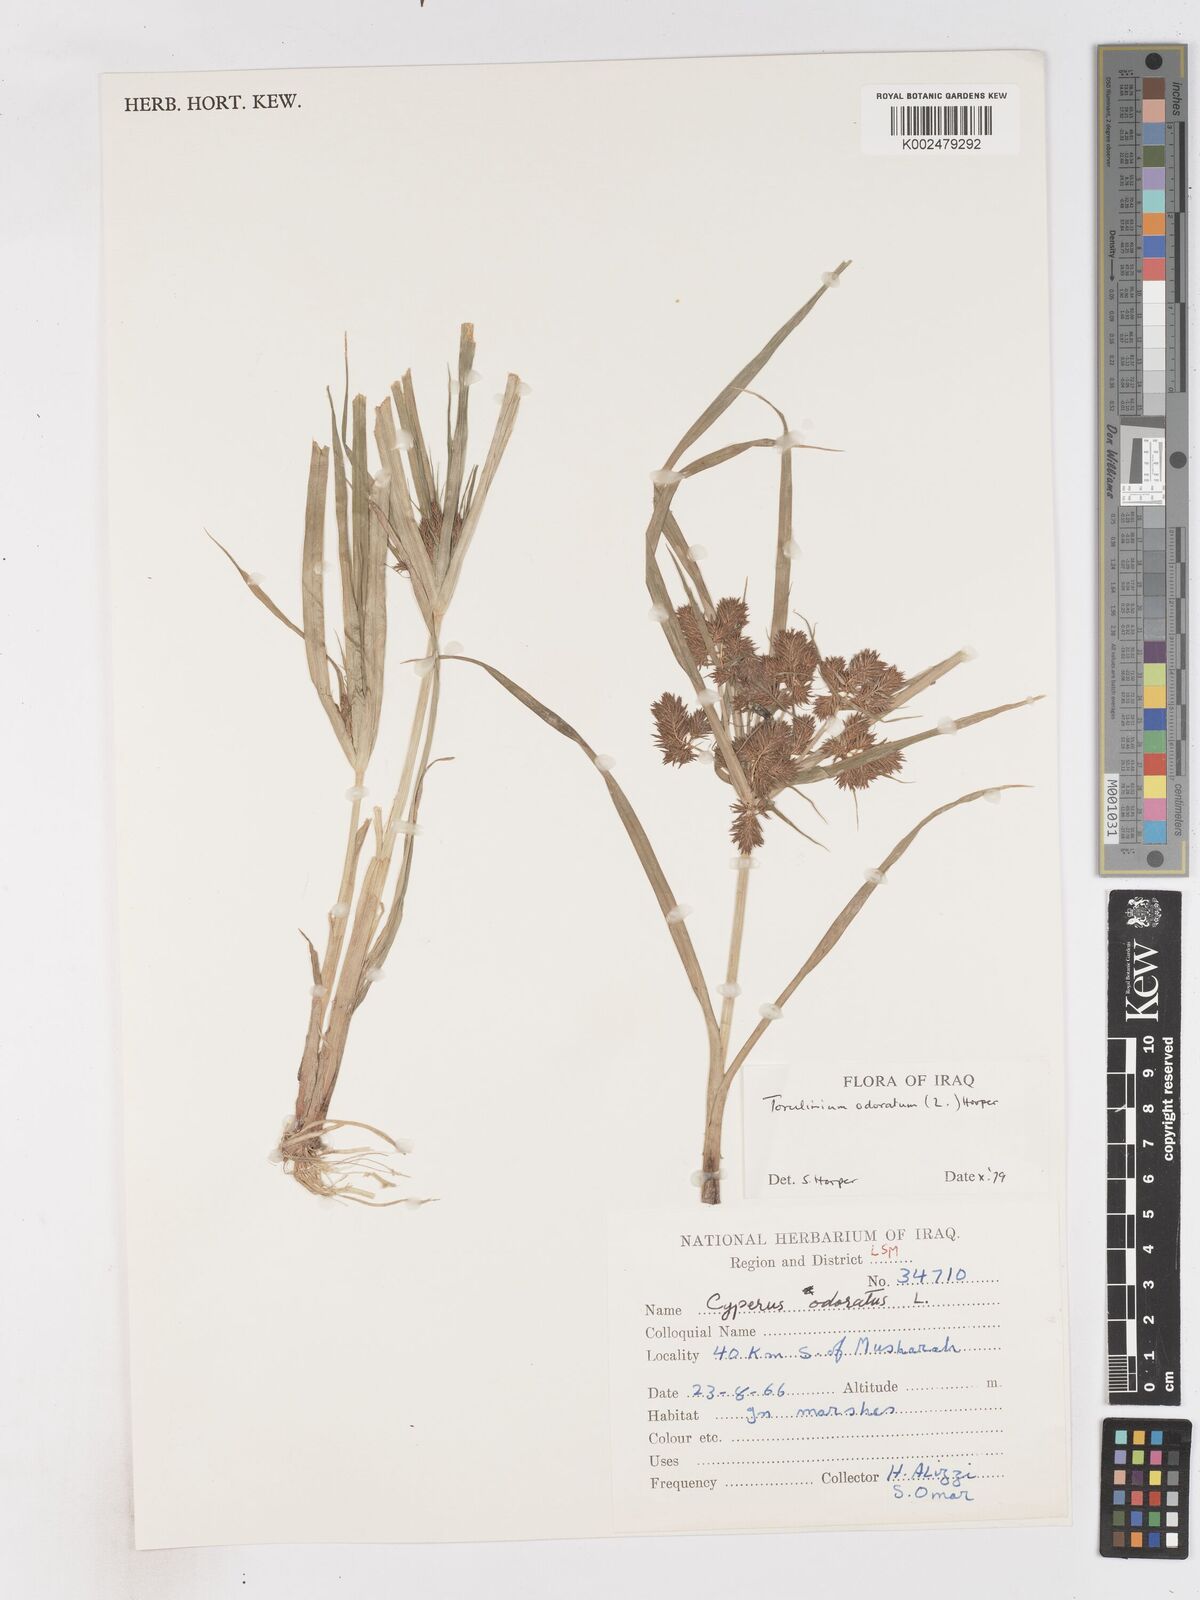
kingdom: Plantae
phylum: Tracheophyta
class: Liliopsida
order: Poales
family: Cyperaceae
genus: Cyperus
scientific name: Cyperus odoratus
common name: Fragrant flatsedge
